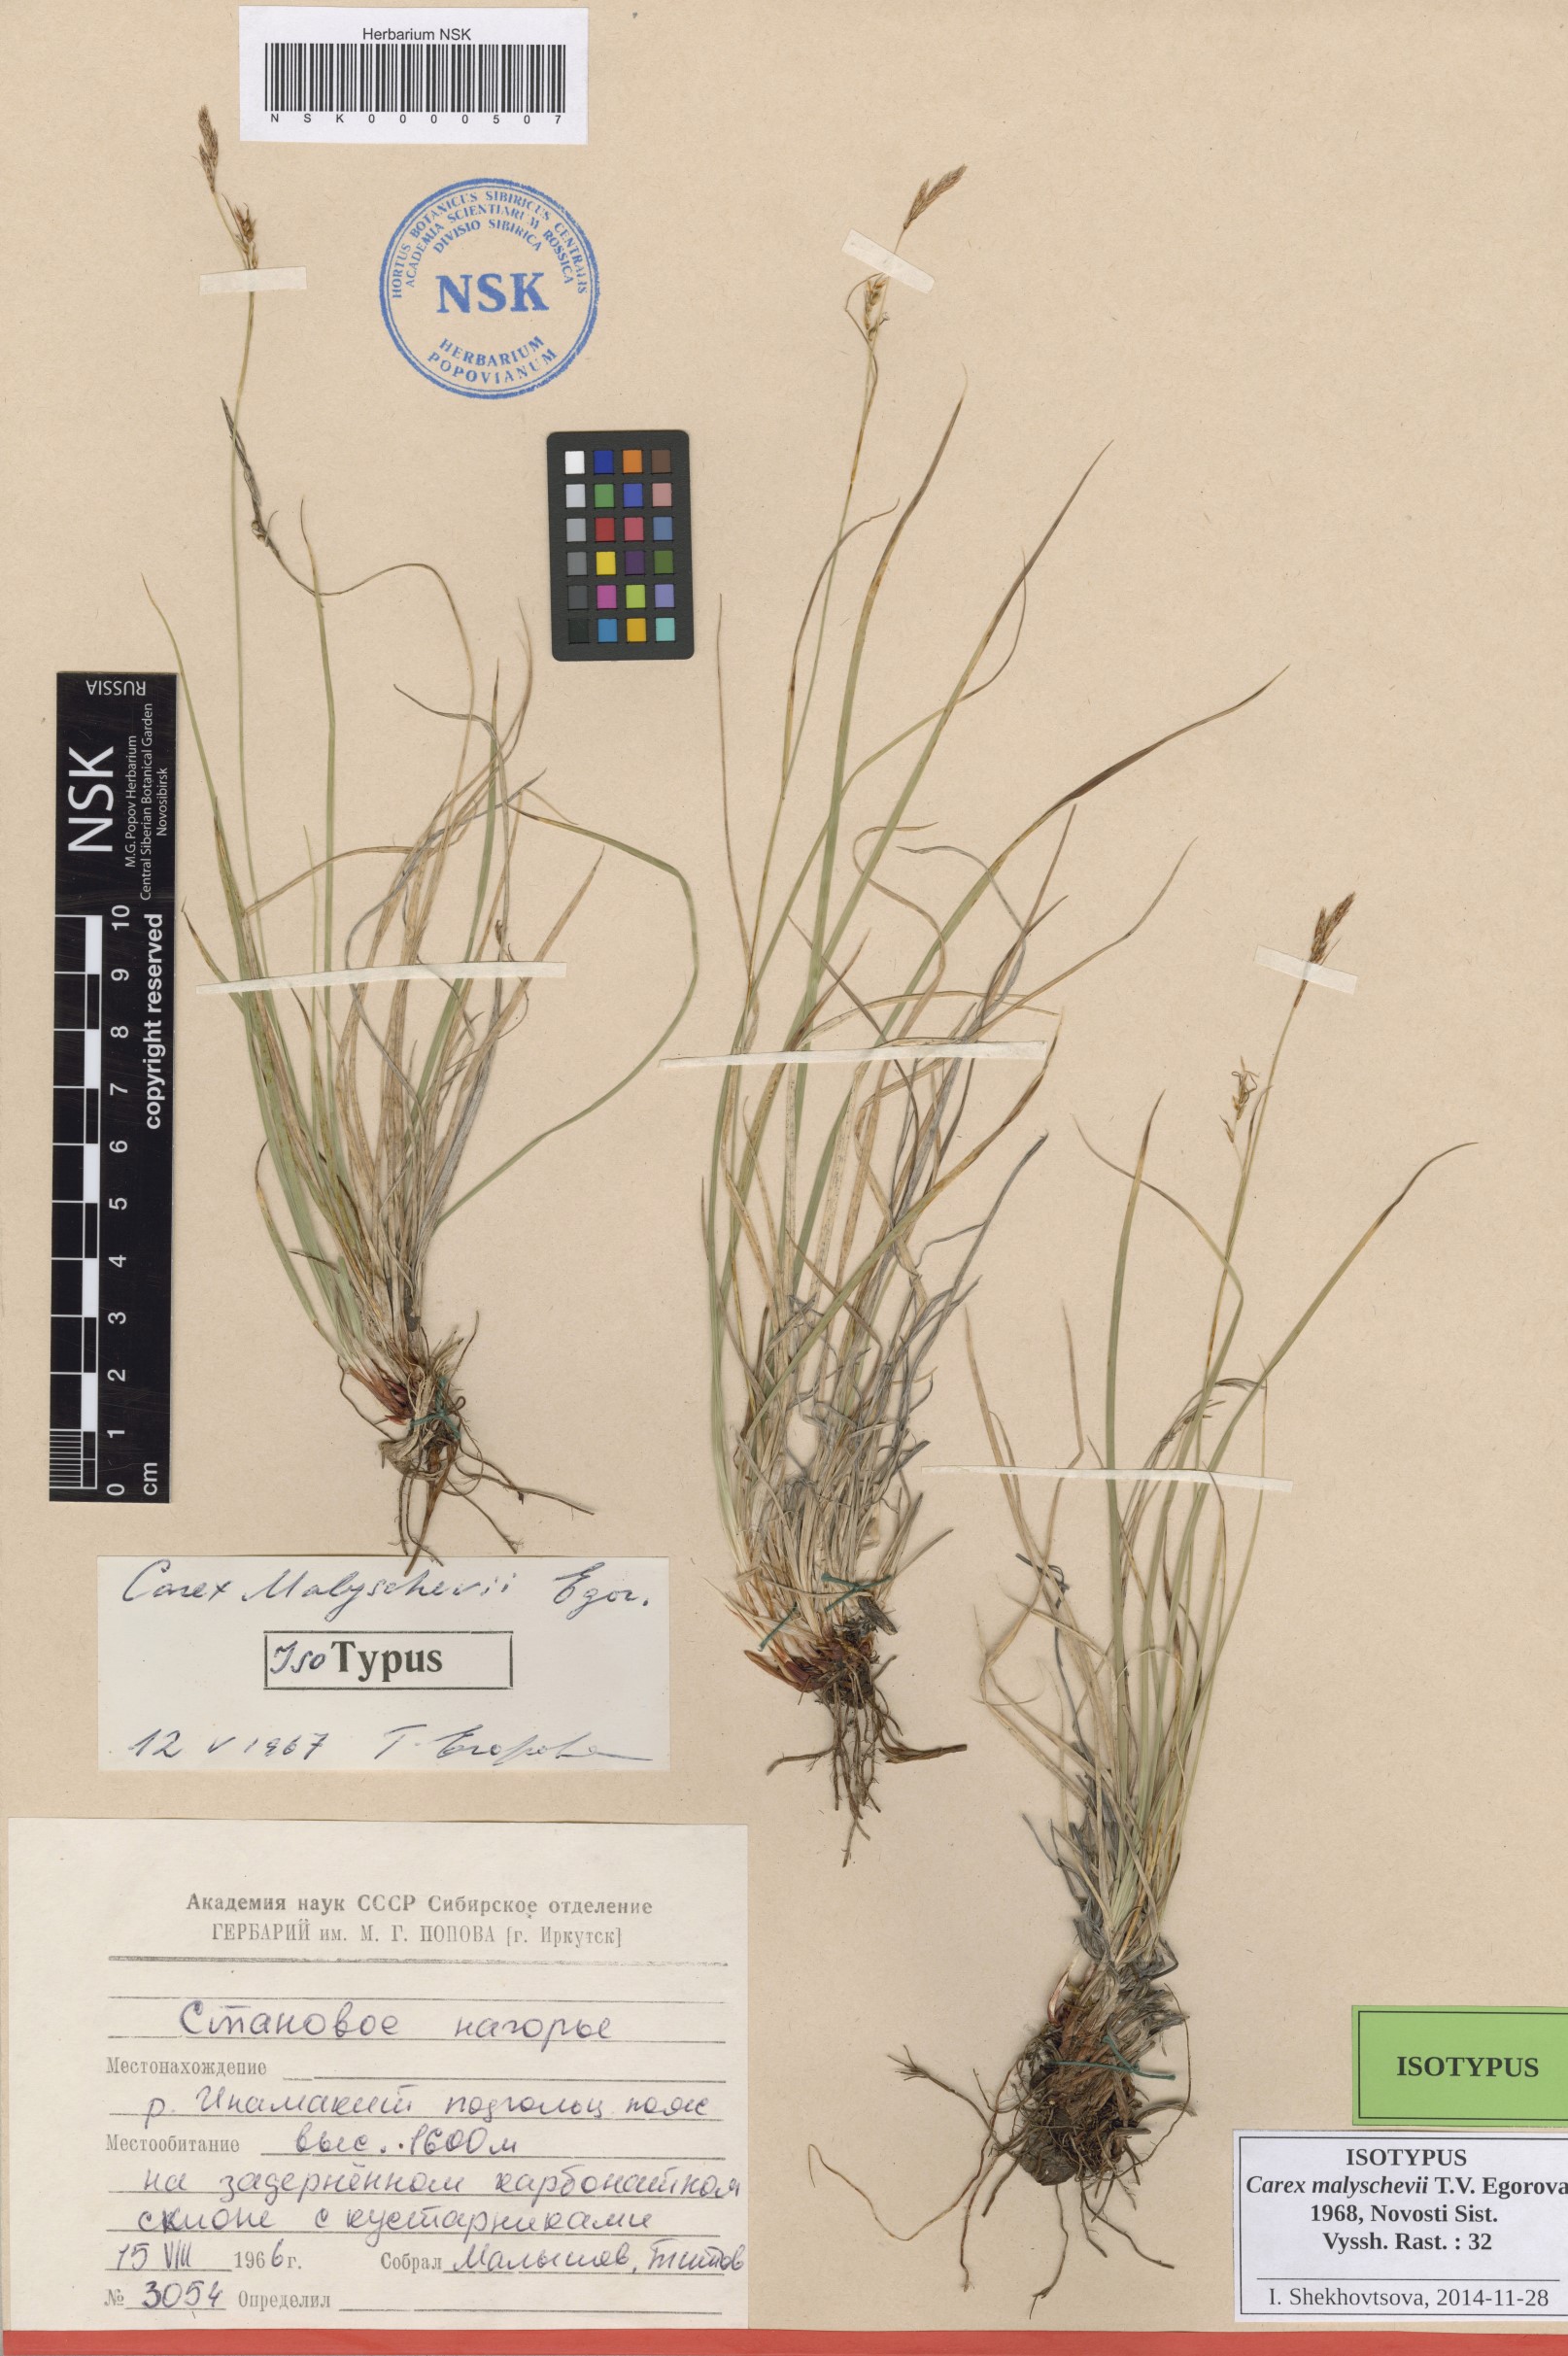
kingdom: Plantae
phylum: Tracheophyta
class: Liliopsida
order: Poales
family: Cyperaceae
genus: Carex
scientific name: Carex malyschevii
